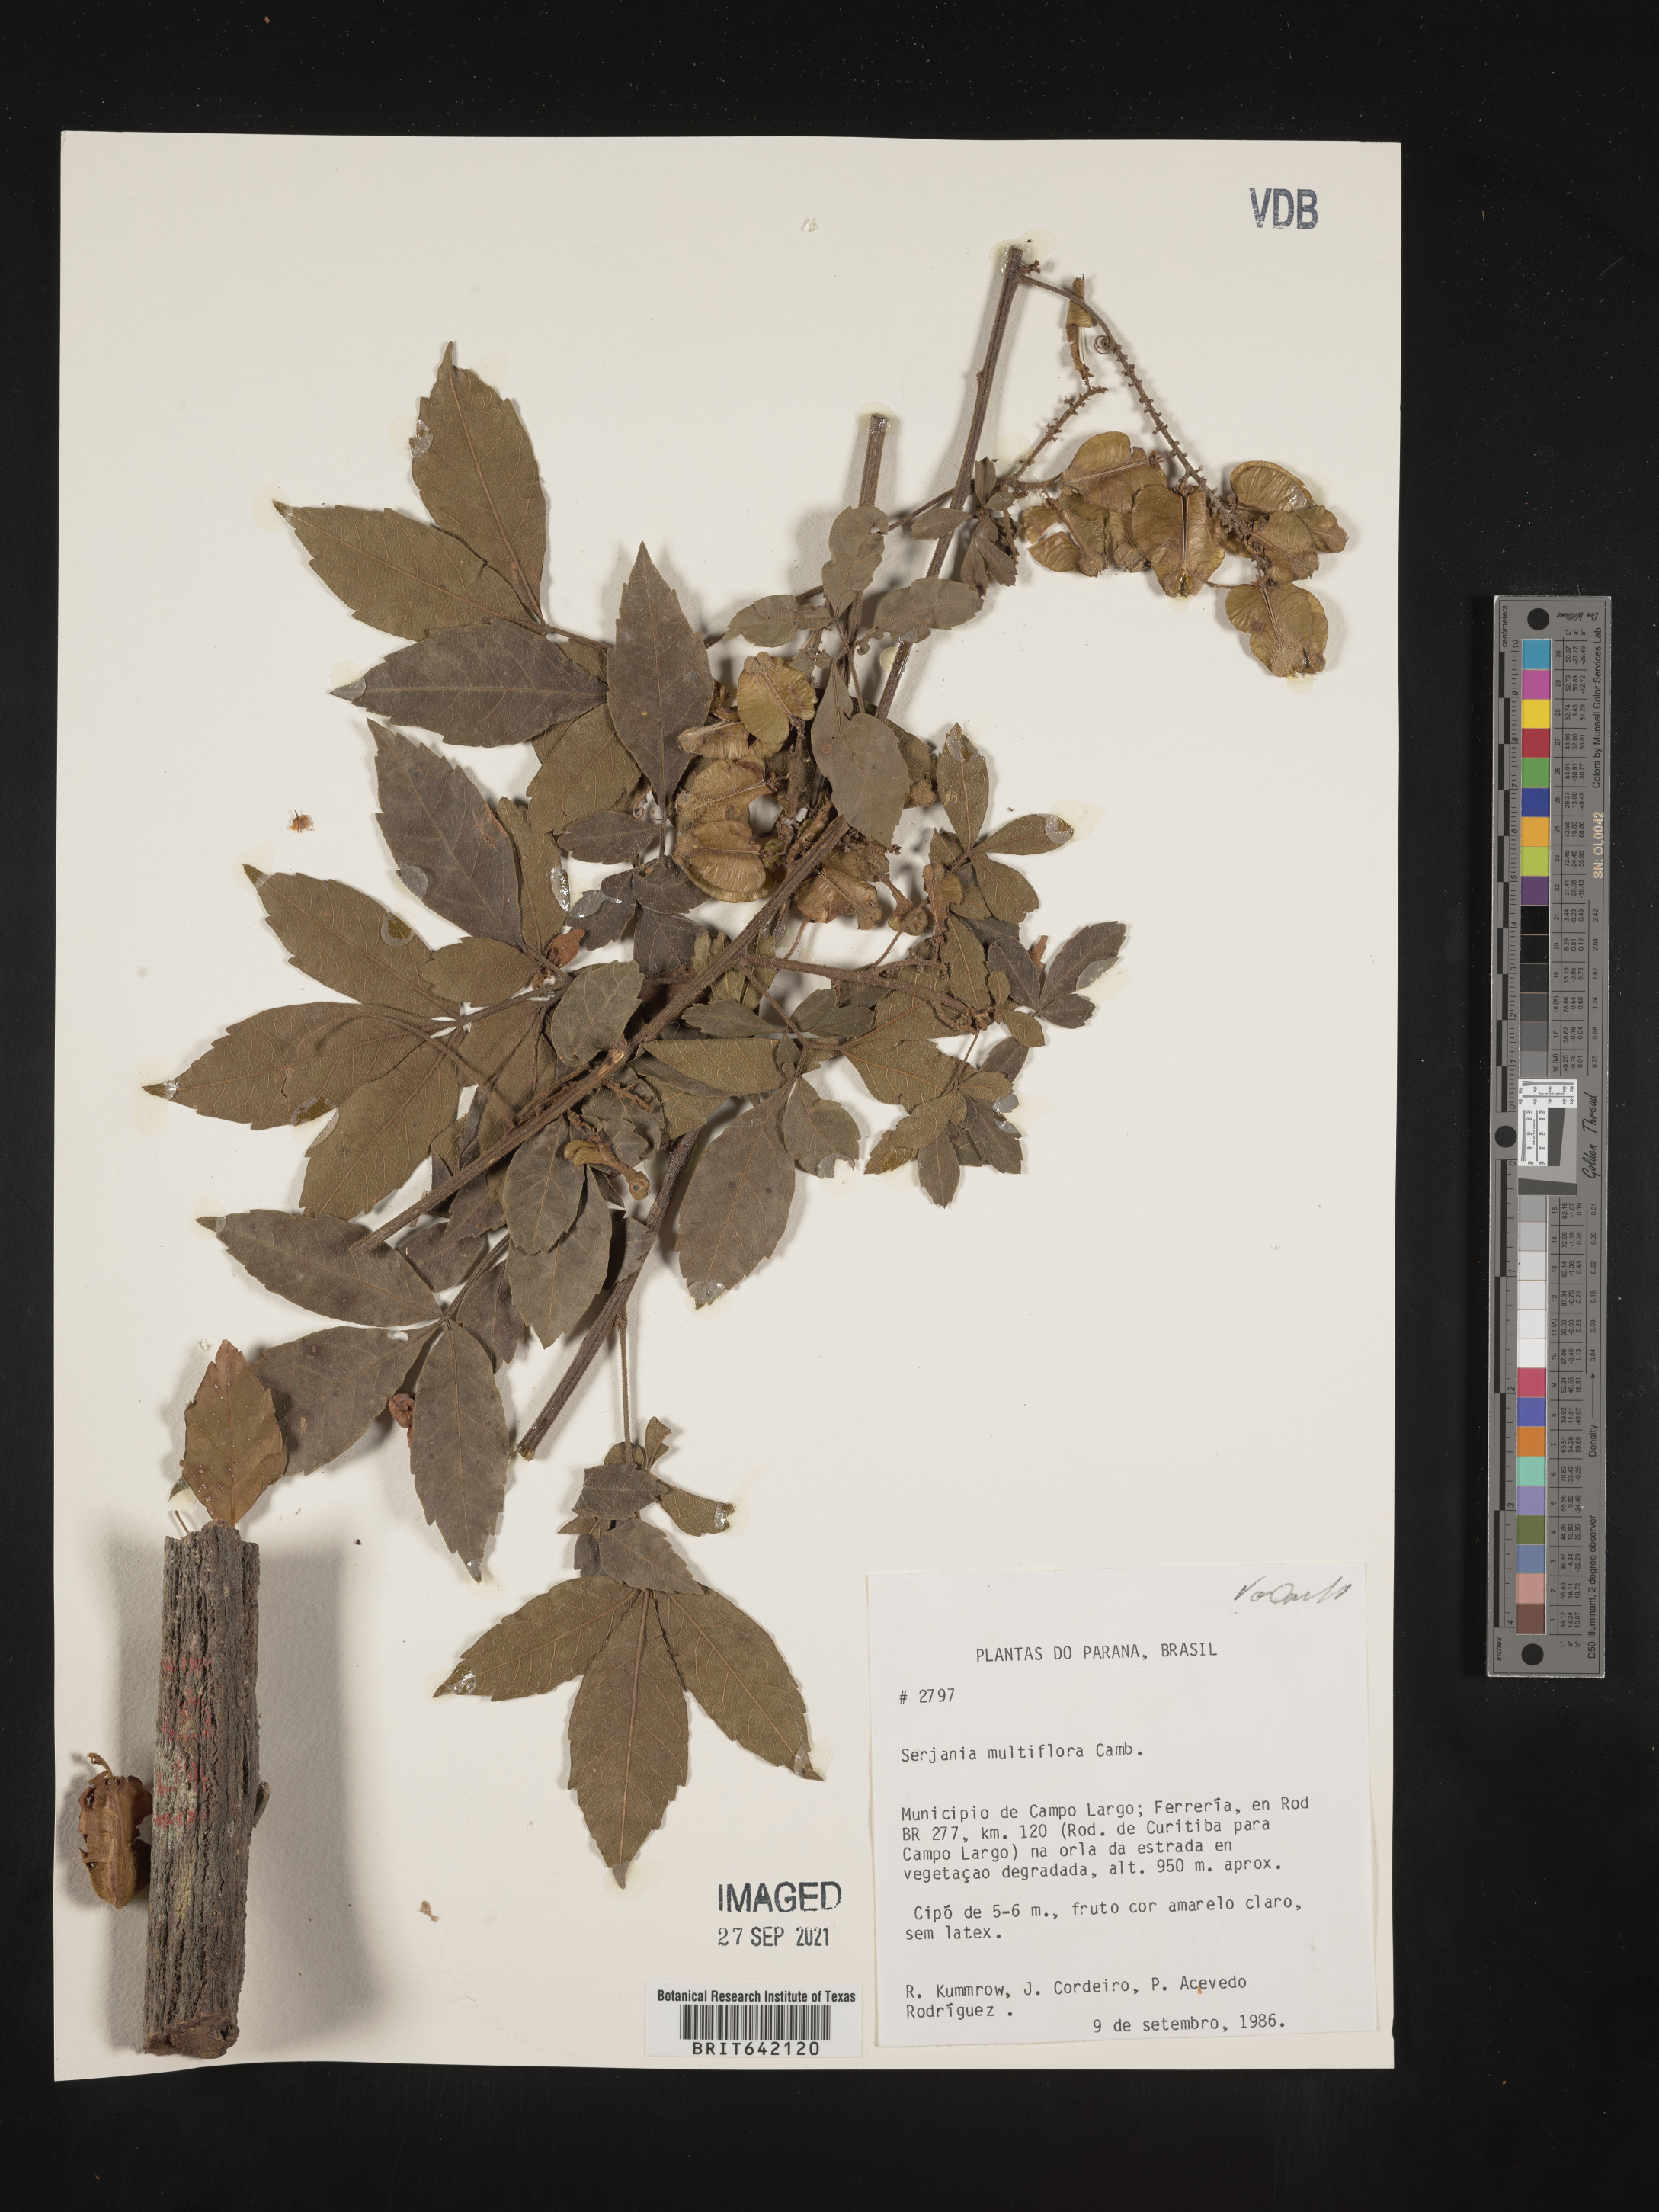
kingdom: Plantae
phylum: Tracheophyta
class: Magnoliopsida
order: Sapindales
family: Sapindaceae
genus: Serjania
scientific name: Serjania
